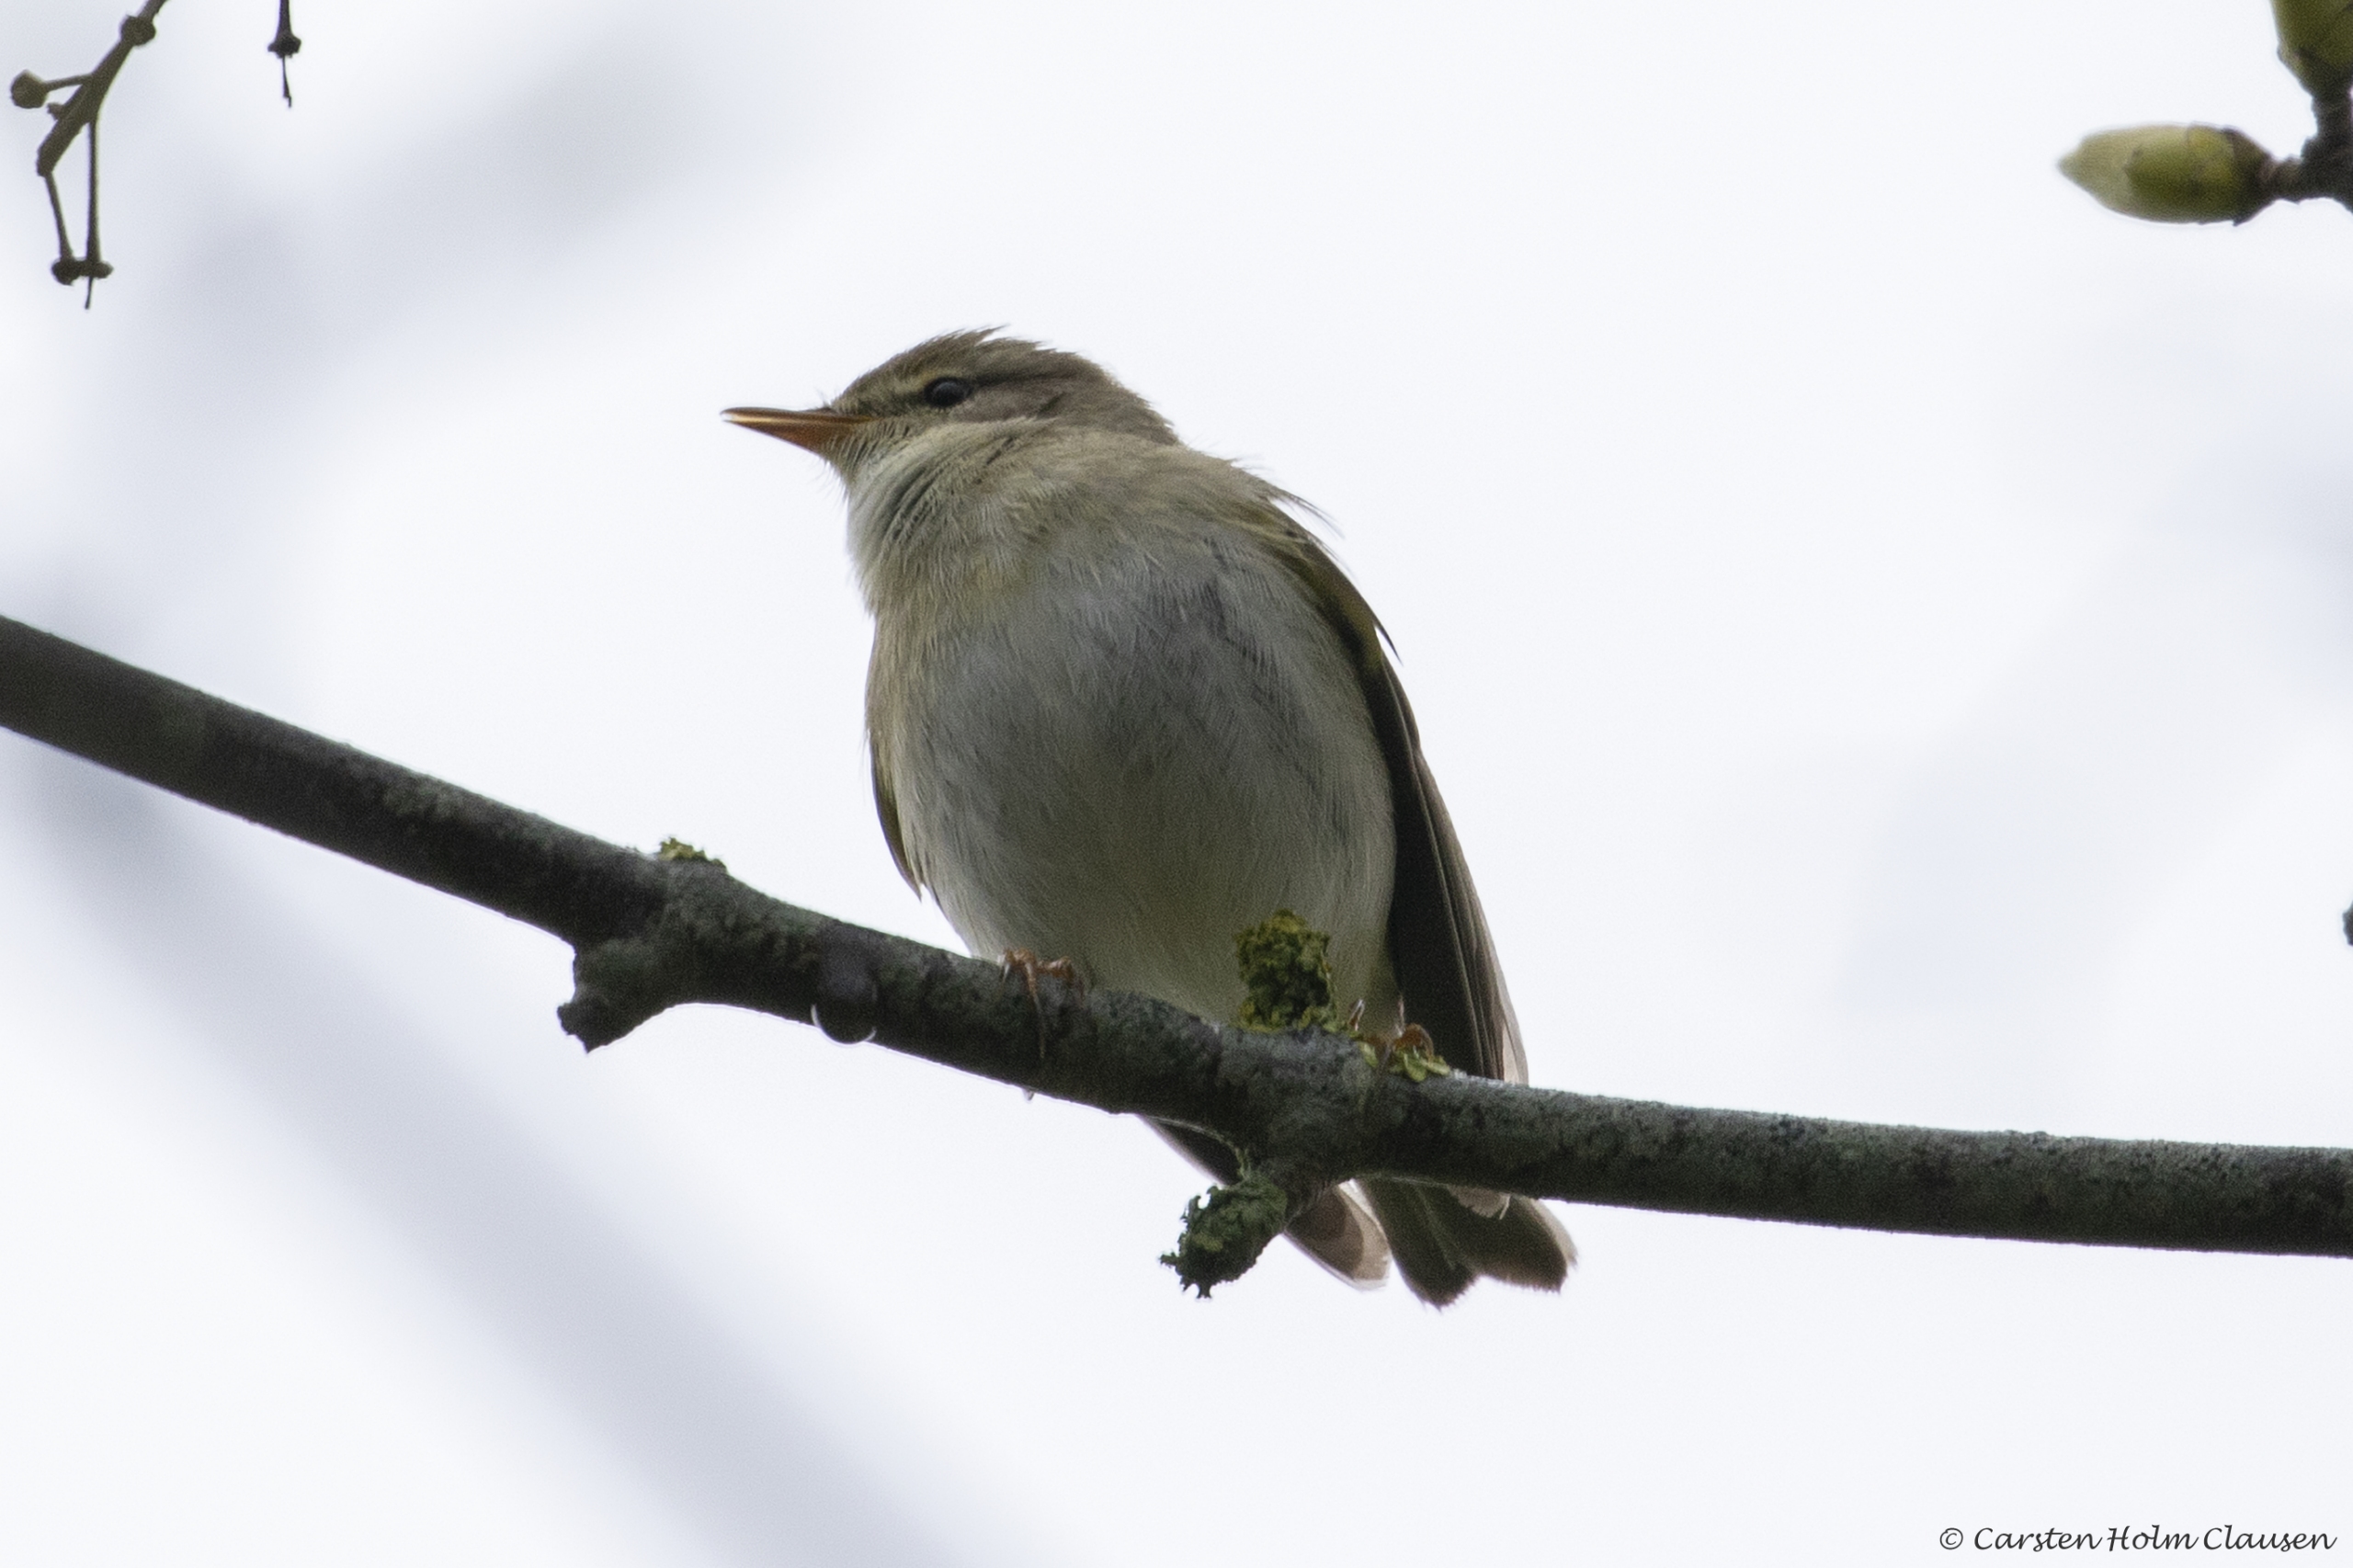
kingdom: Animalia
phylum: Chordata
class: Aves
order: Passeriformes
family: Phylloscopidae
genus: Phylloscopus
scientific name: Phylloscopus trochilus
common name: Løvsanger
